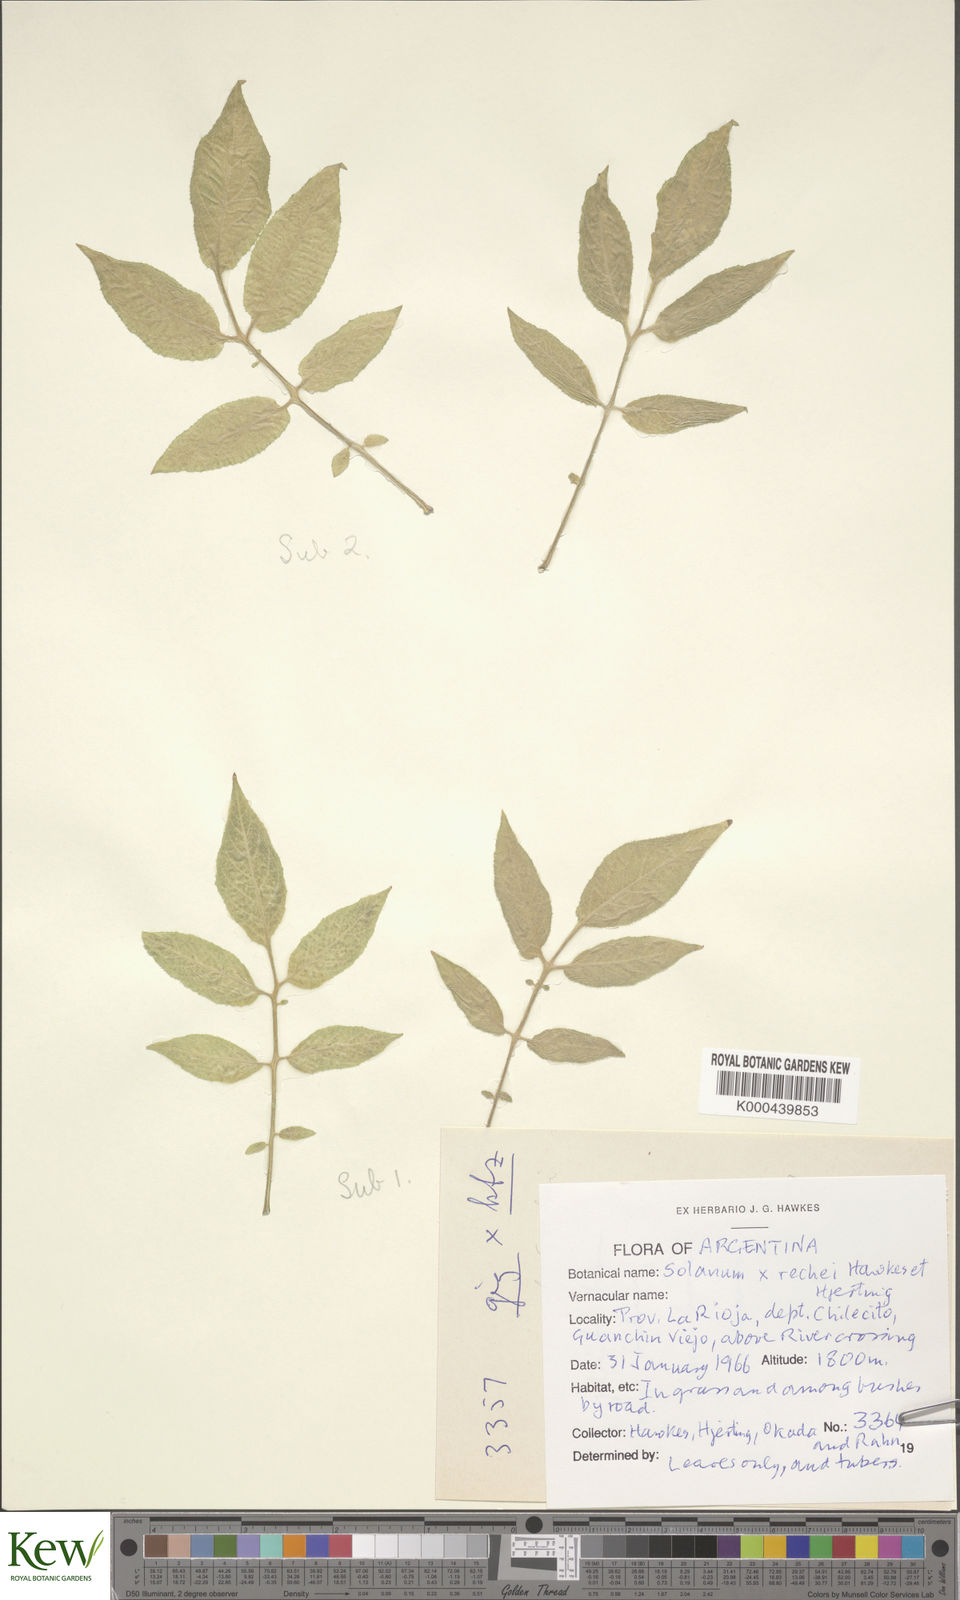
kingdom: Plantae
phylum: Tracheophyta
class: Magnoliopsida
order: Solanales
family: Solanaceae
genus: Solanum
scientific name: Solanum microdontum
